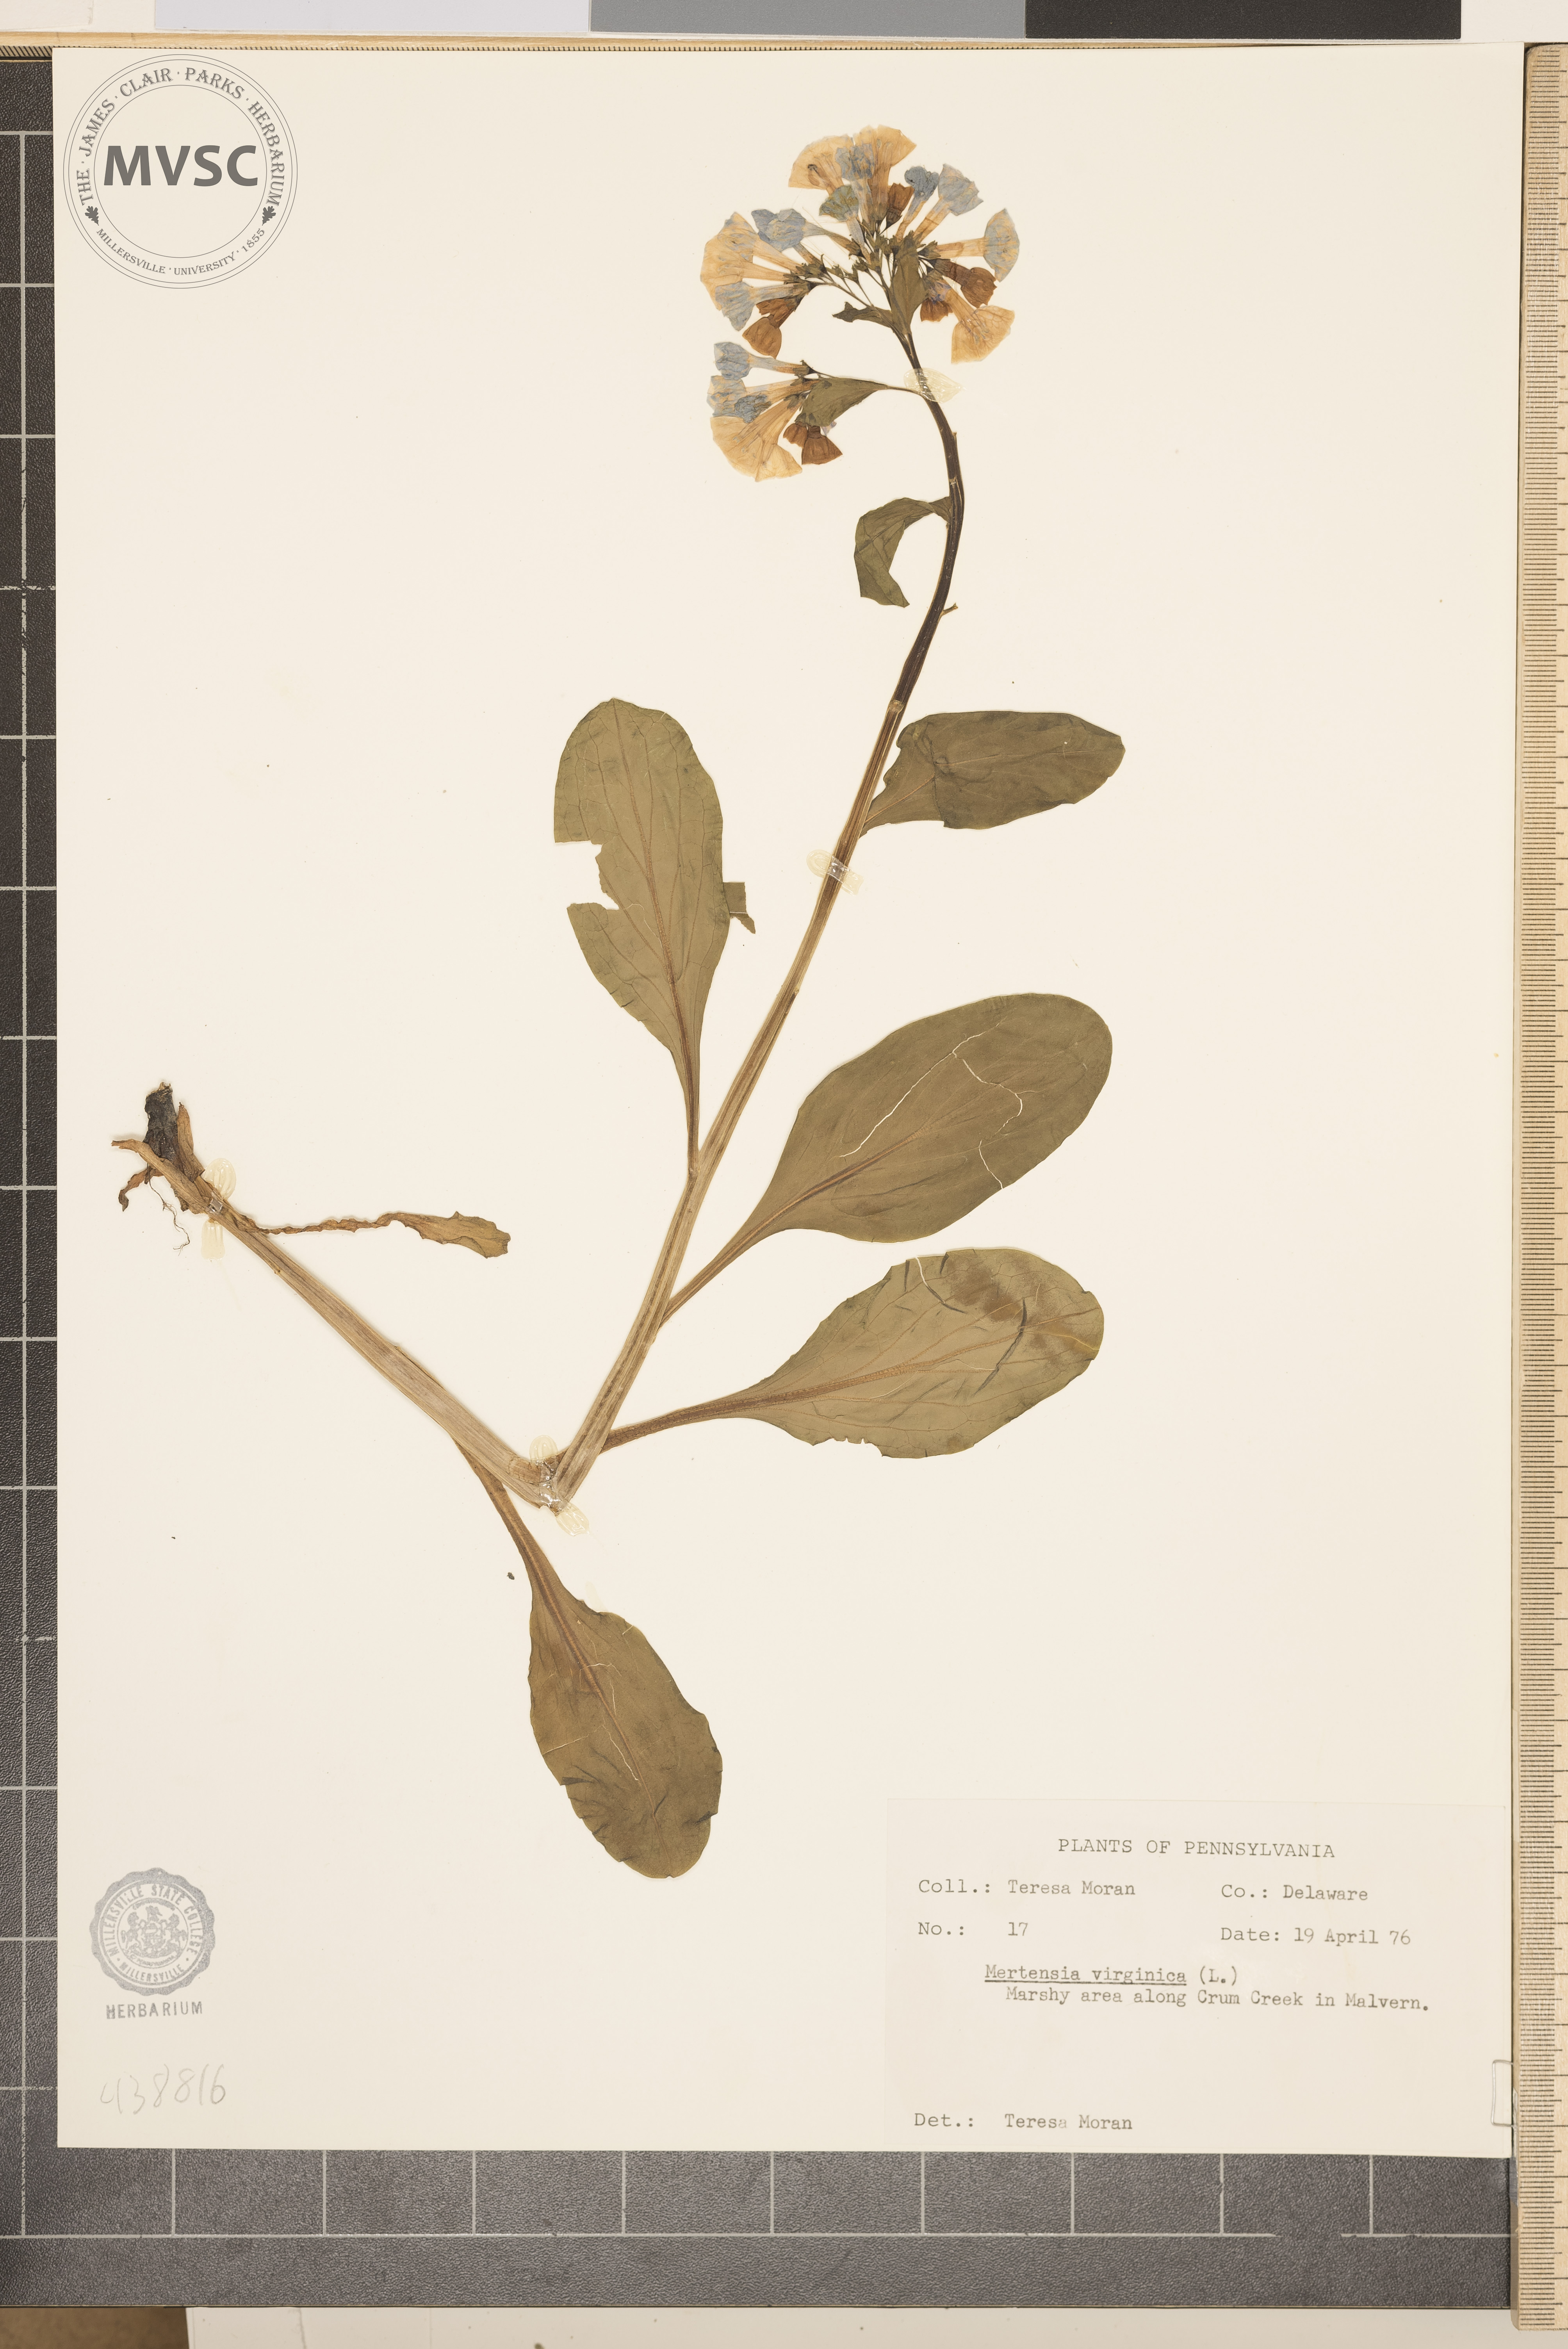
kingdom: Plantae
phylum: Tracheophyta
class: Magnoliopsida
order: Boraginales
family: Boraginaceae
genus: Mertensia
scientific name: Mertensia virginica
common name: Virginia bluebells
